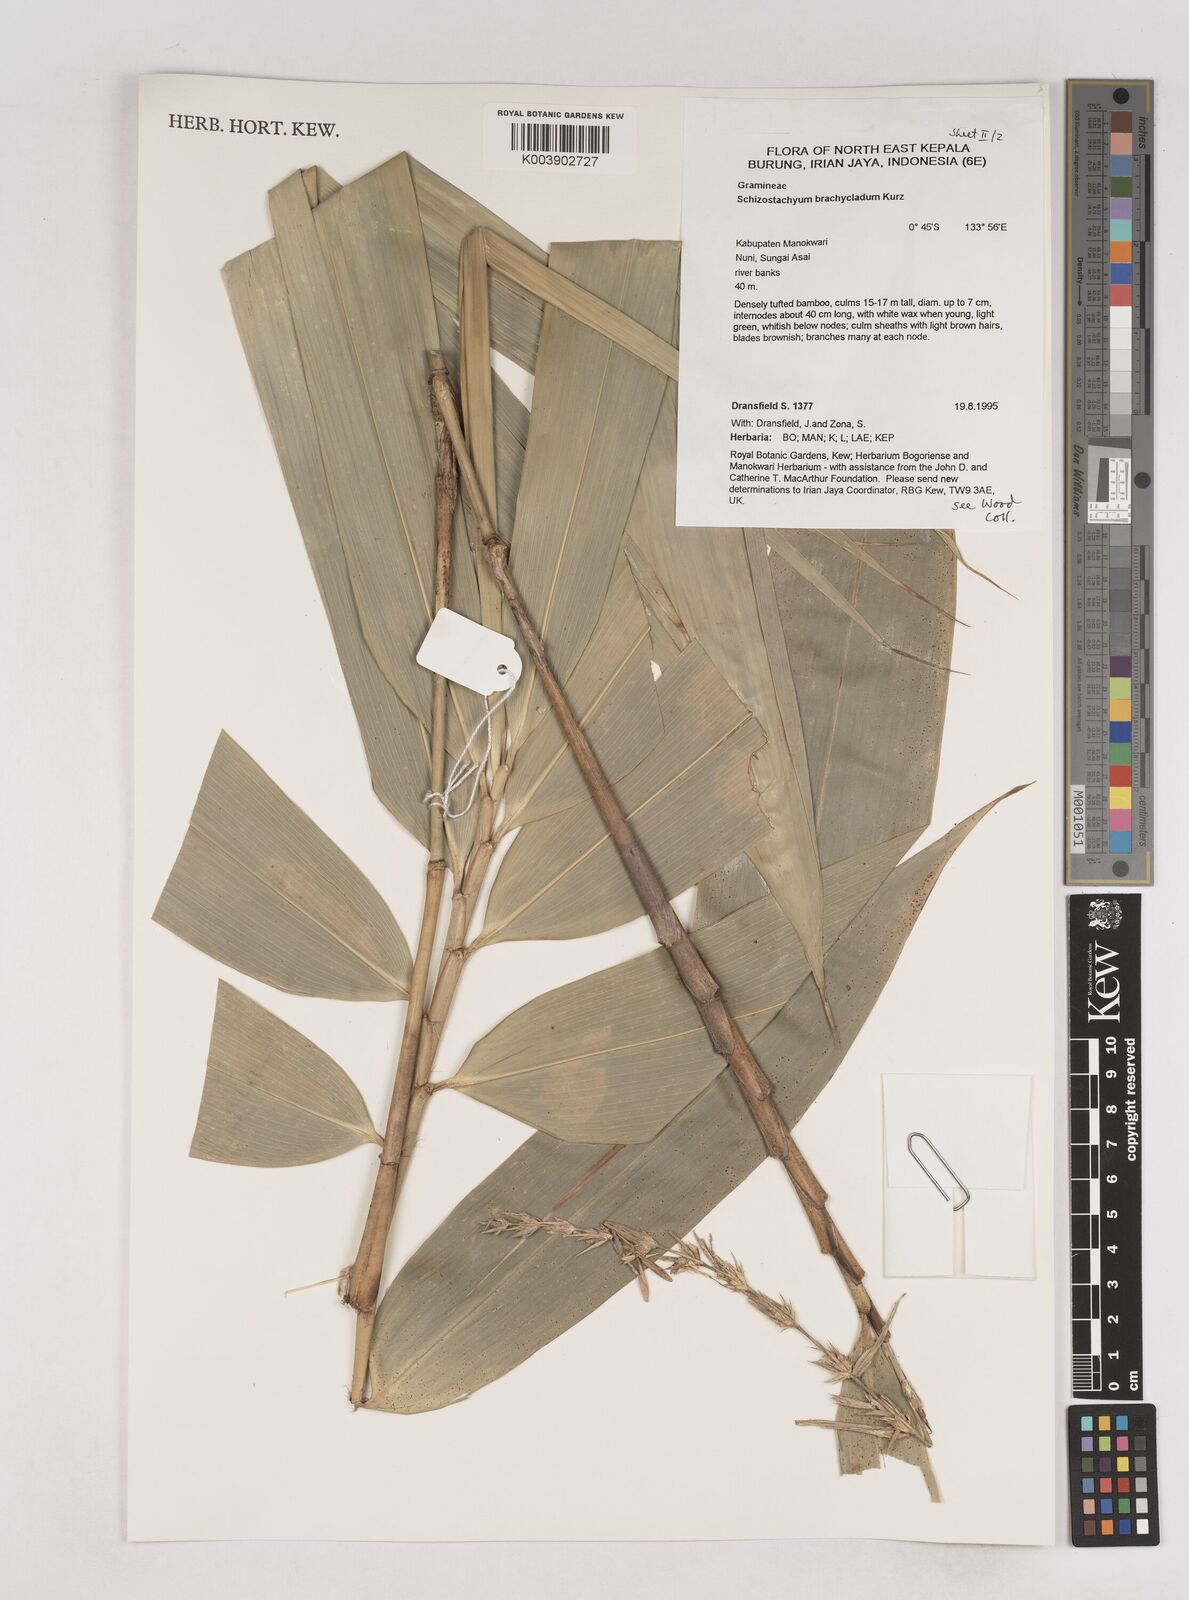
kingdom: Plantae
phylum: Tracheophyta
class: Liliopsida
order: Poales
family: Poaceae
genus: Schizostachyum
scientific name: Schizostachyum brachycladum
